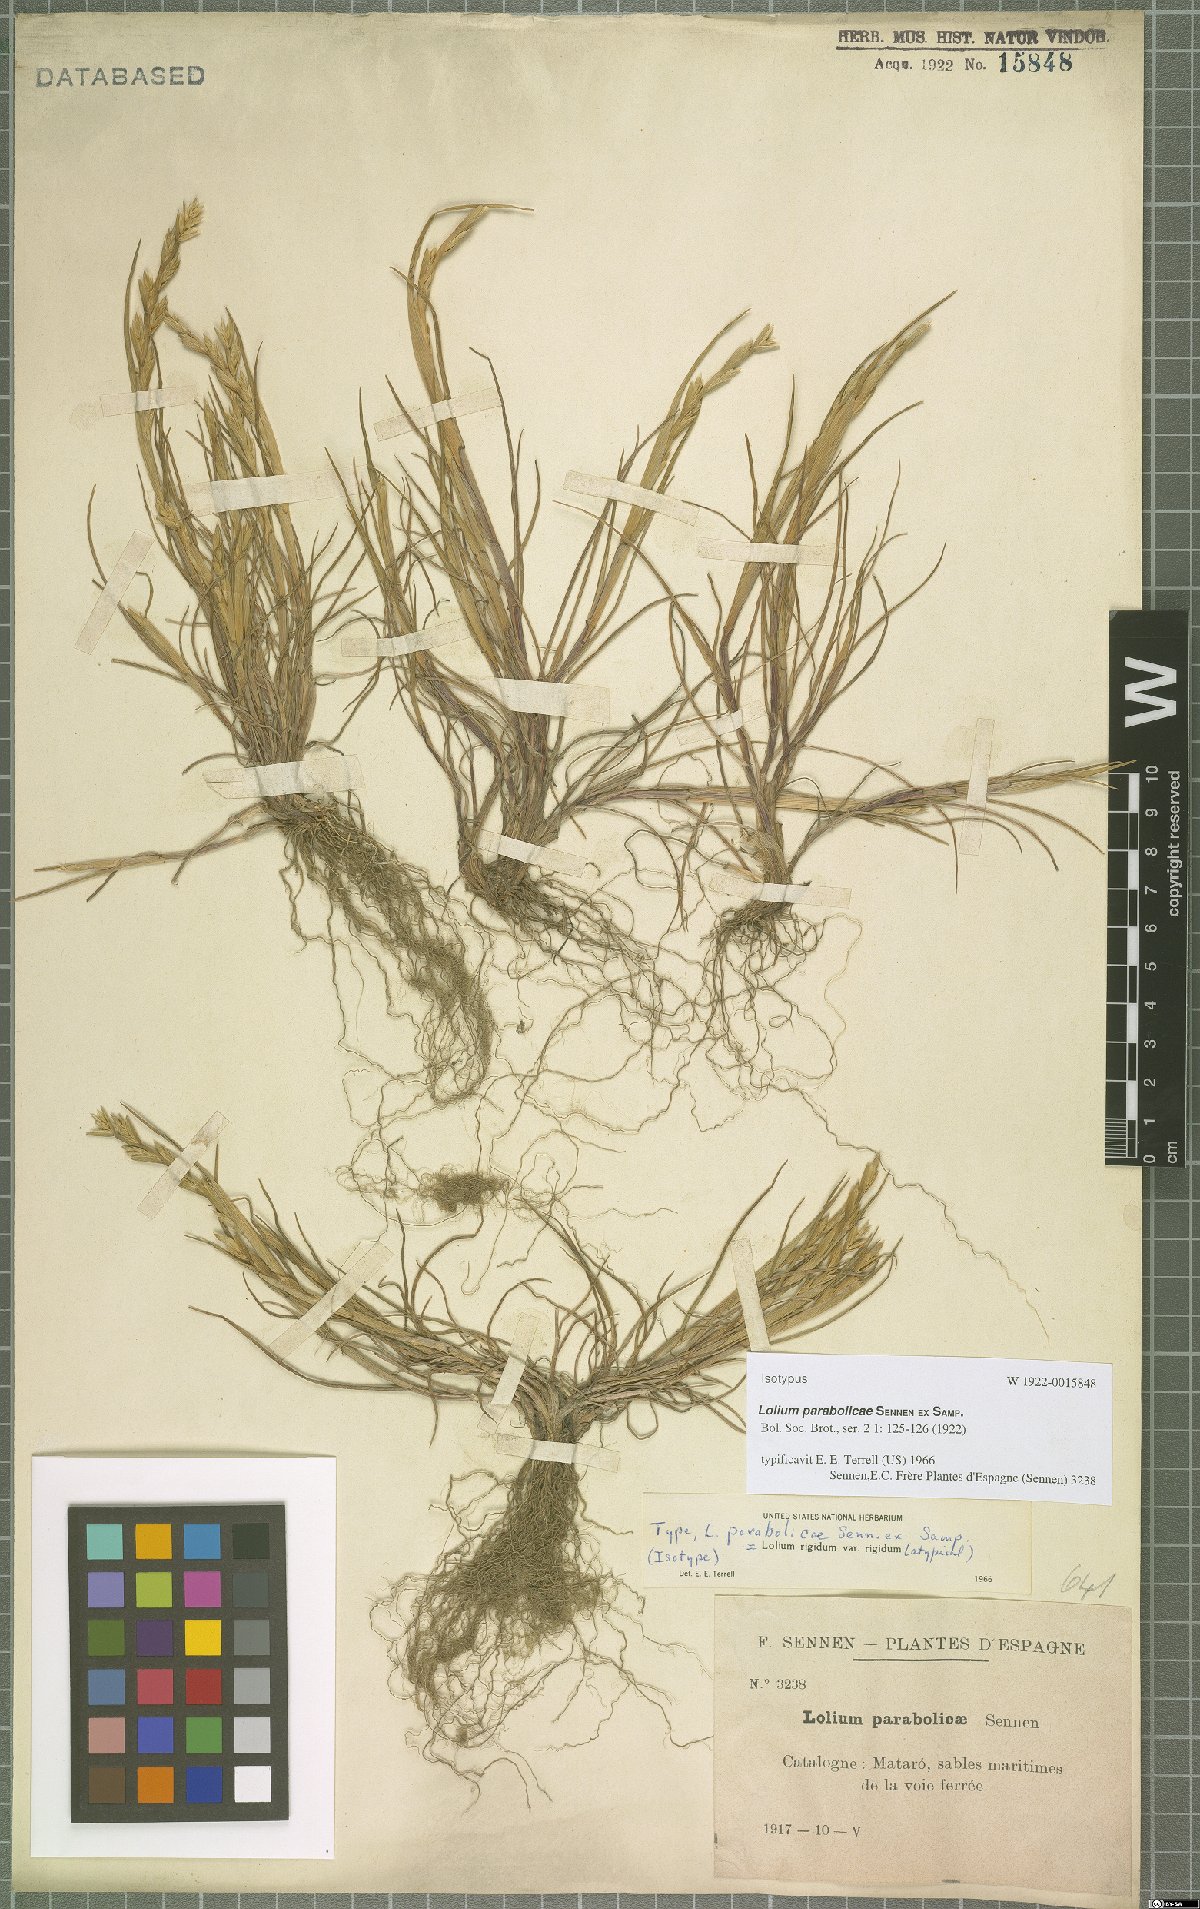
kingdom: Plantae
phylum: Tracheophyta
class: Liliopsida
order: Poales
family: Poaceae
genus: Lolium
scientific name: Lolium rigidum
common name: Wimmera ryegrass
